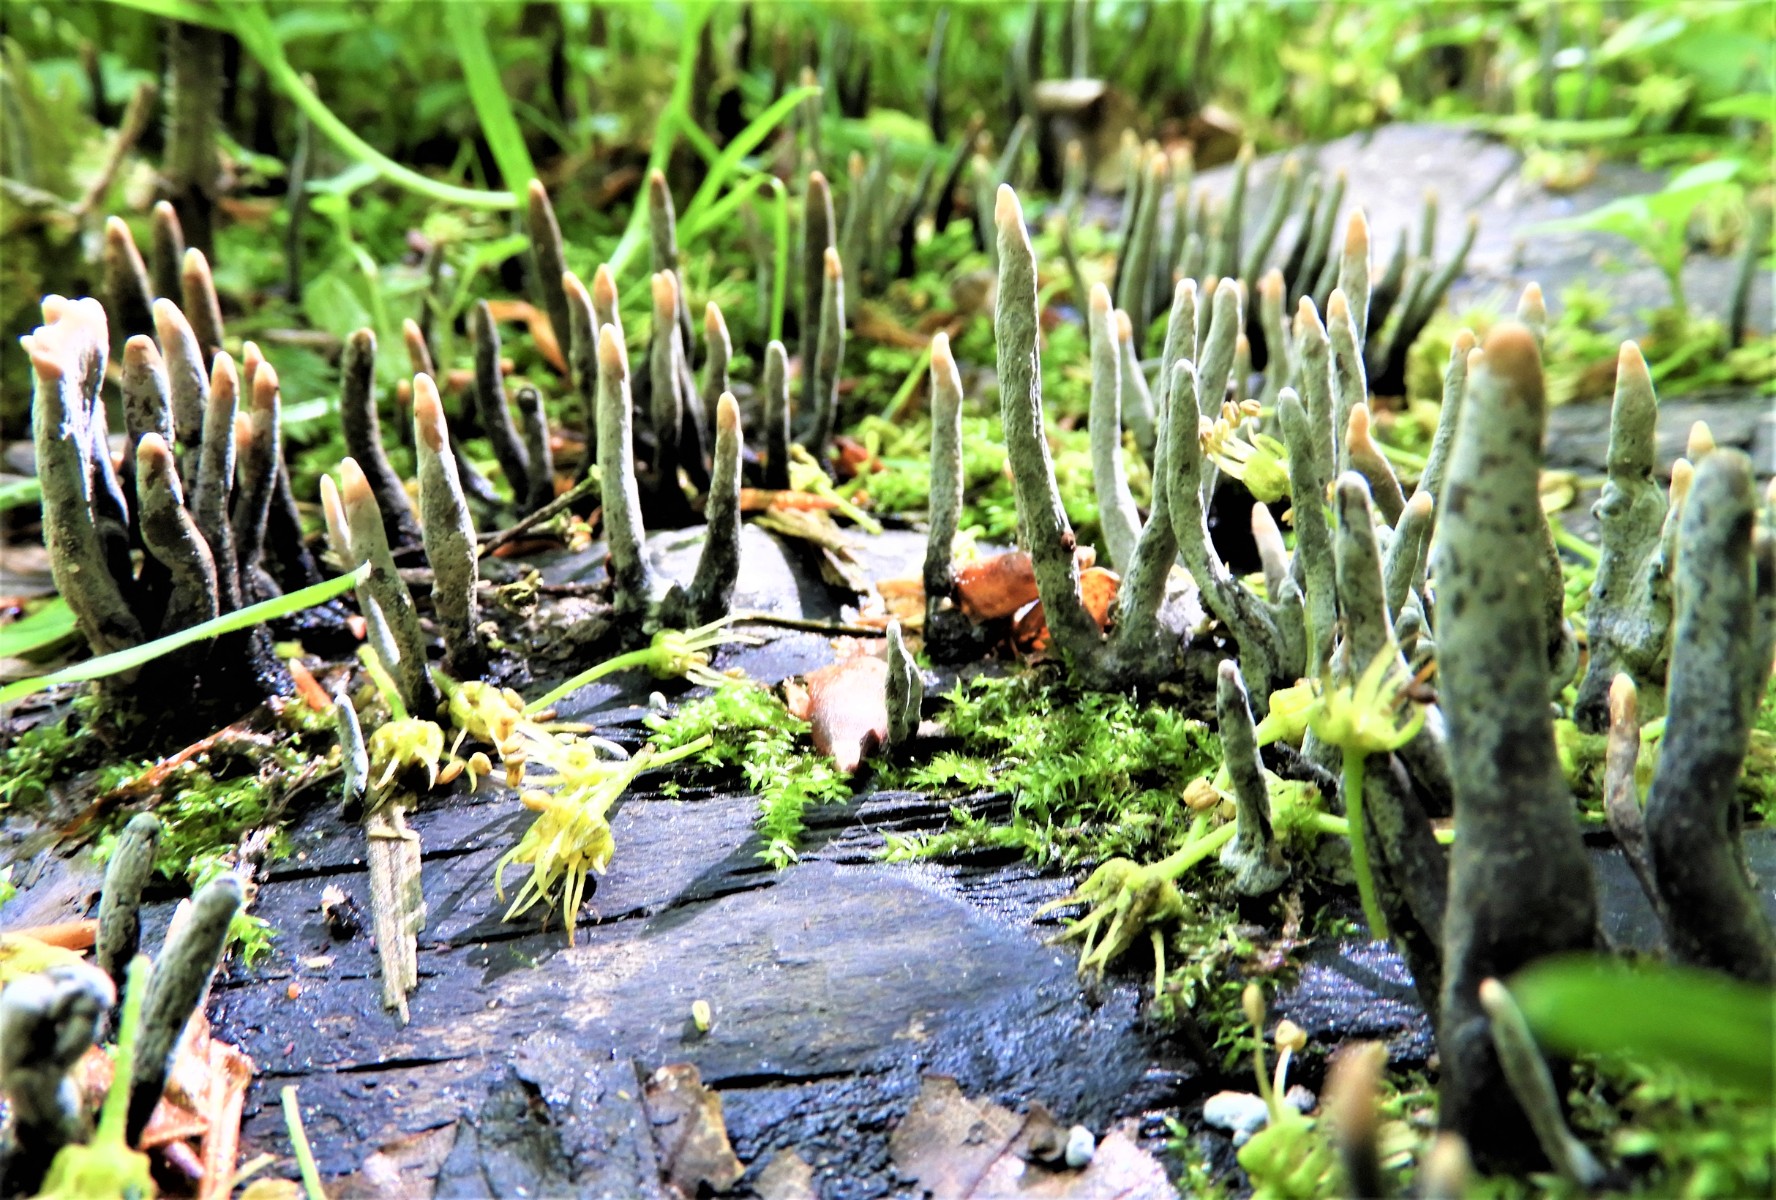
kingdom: Fungi
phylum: Ascomycota
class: Sordariomycetes
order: Xylariales
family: Xylariaceae
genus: Xylaria
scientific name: Xylaria hypoxylon
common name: grenet stødsvamp
